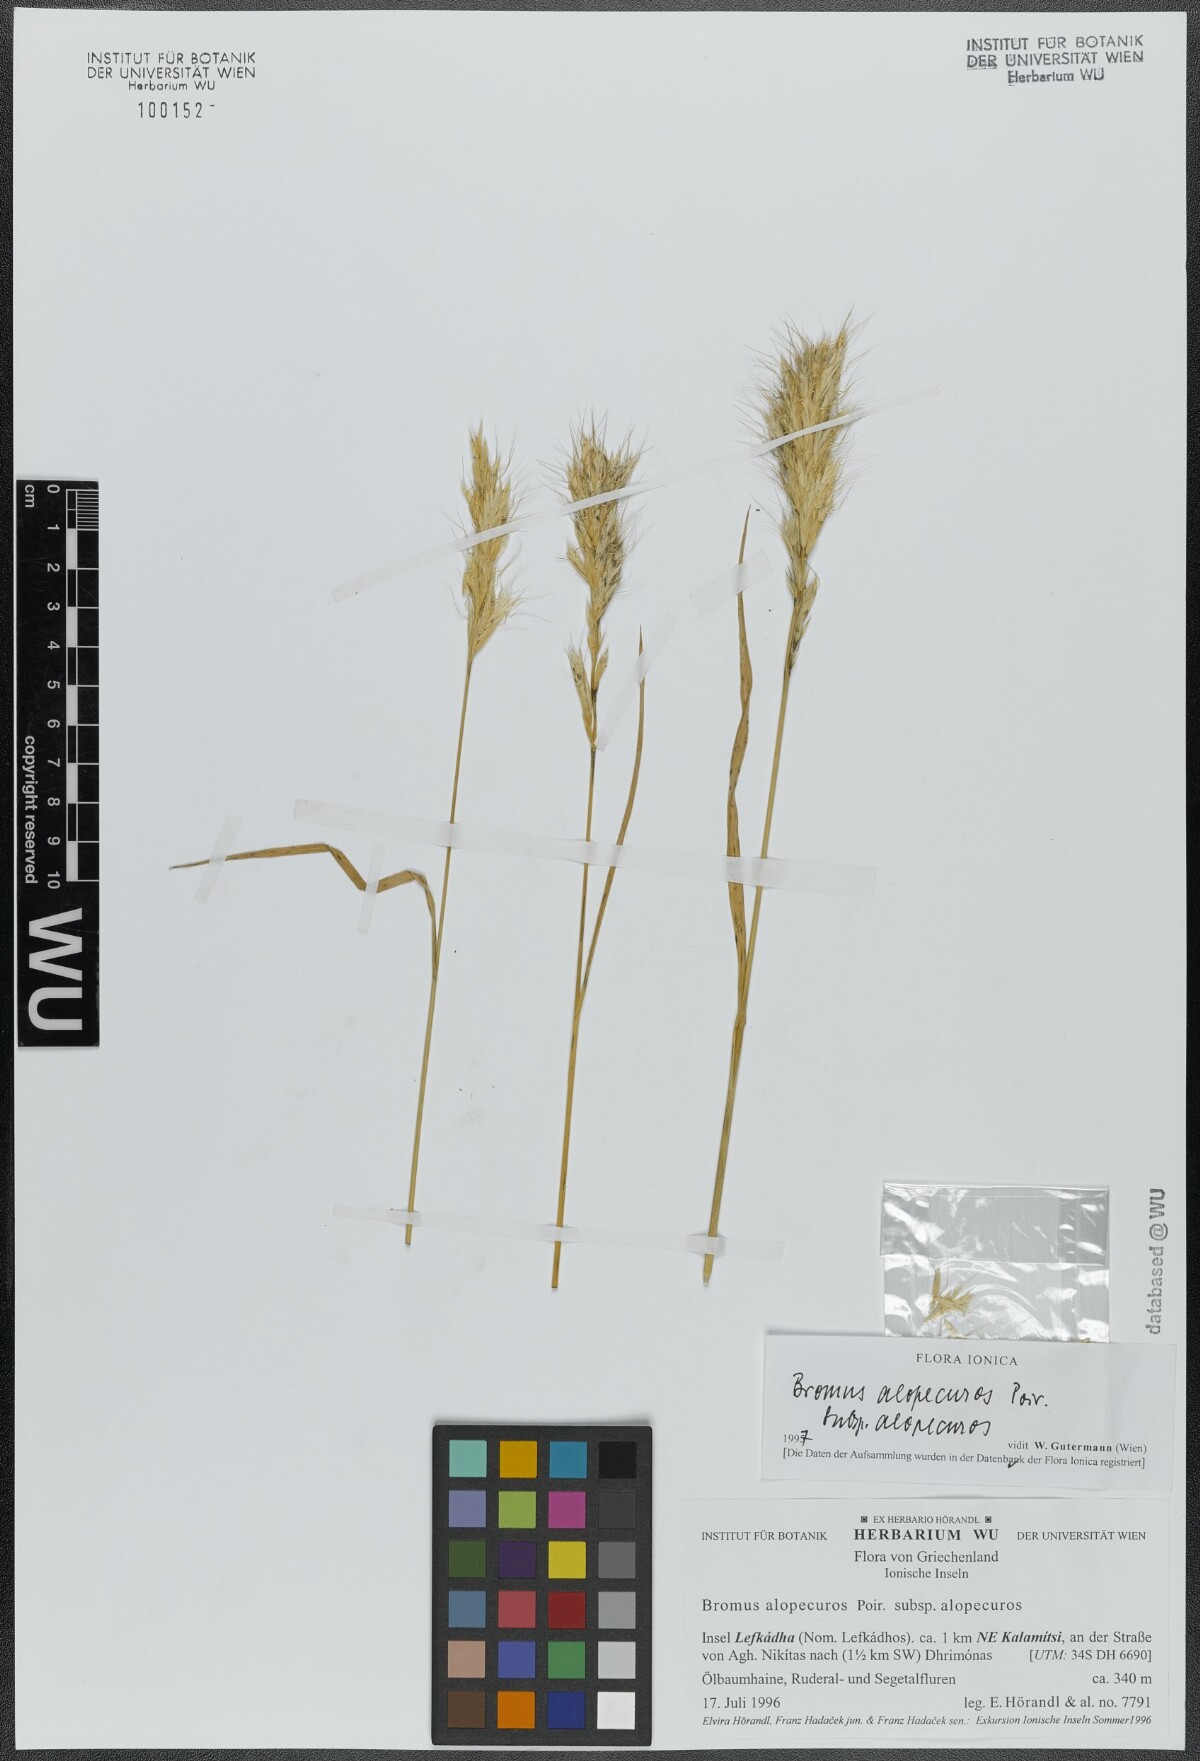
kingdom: Plantae
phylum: Tracheophyta
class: Liliopsida
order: Poales
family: Poaceae
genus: Bromus
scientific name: Bromus alopecuros
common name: Weedy brome
